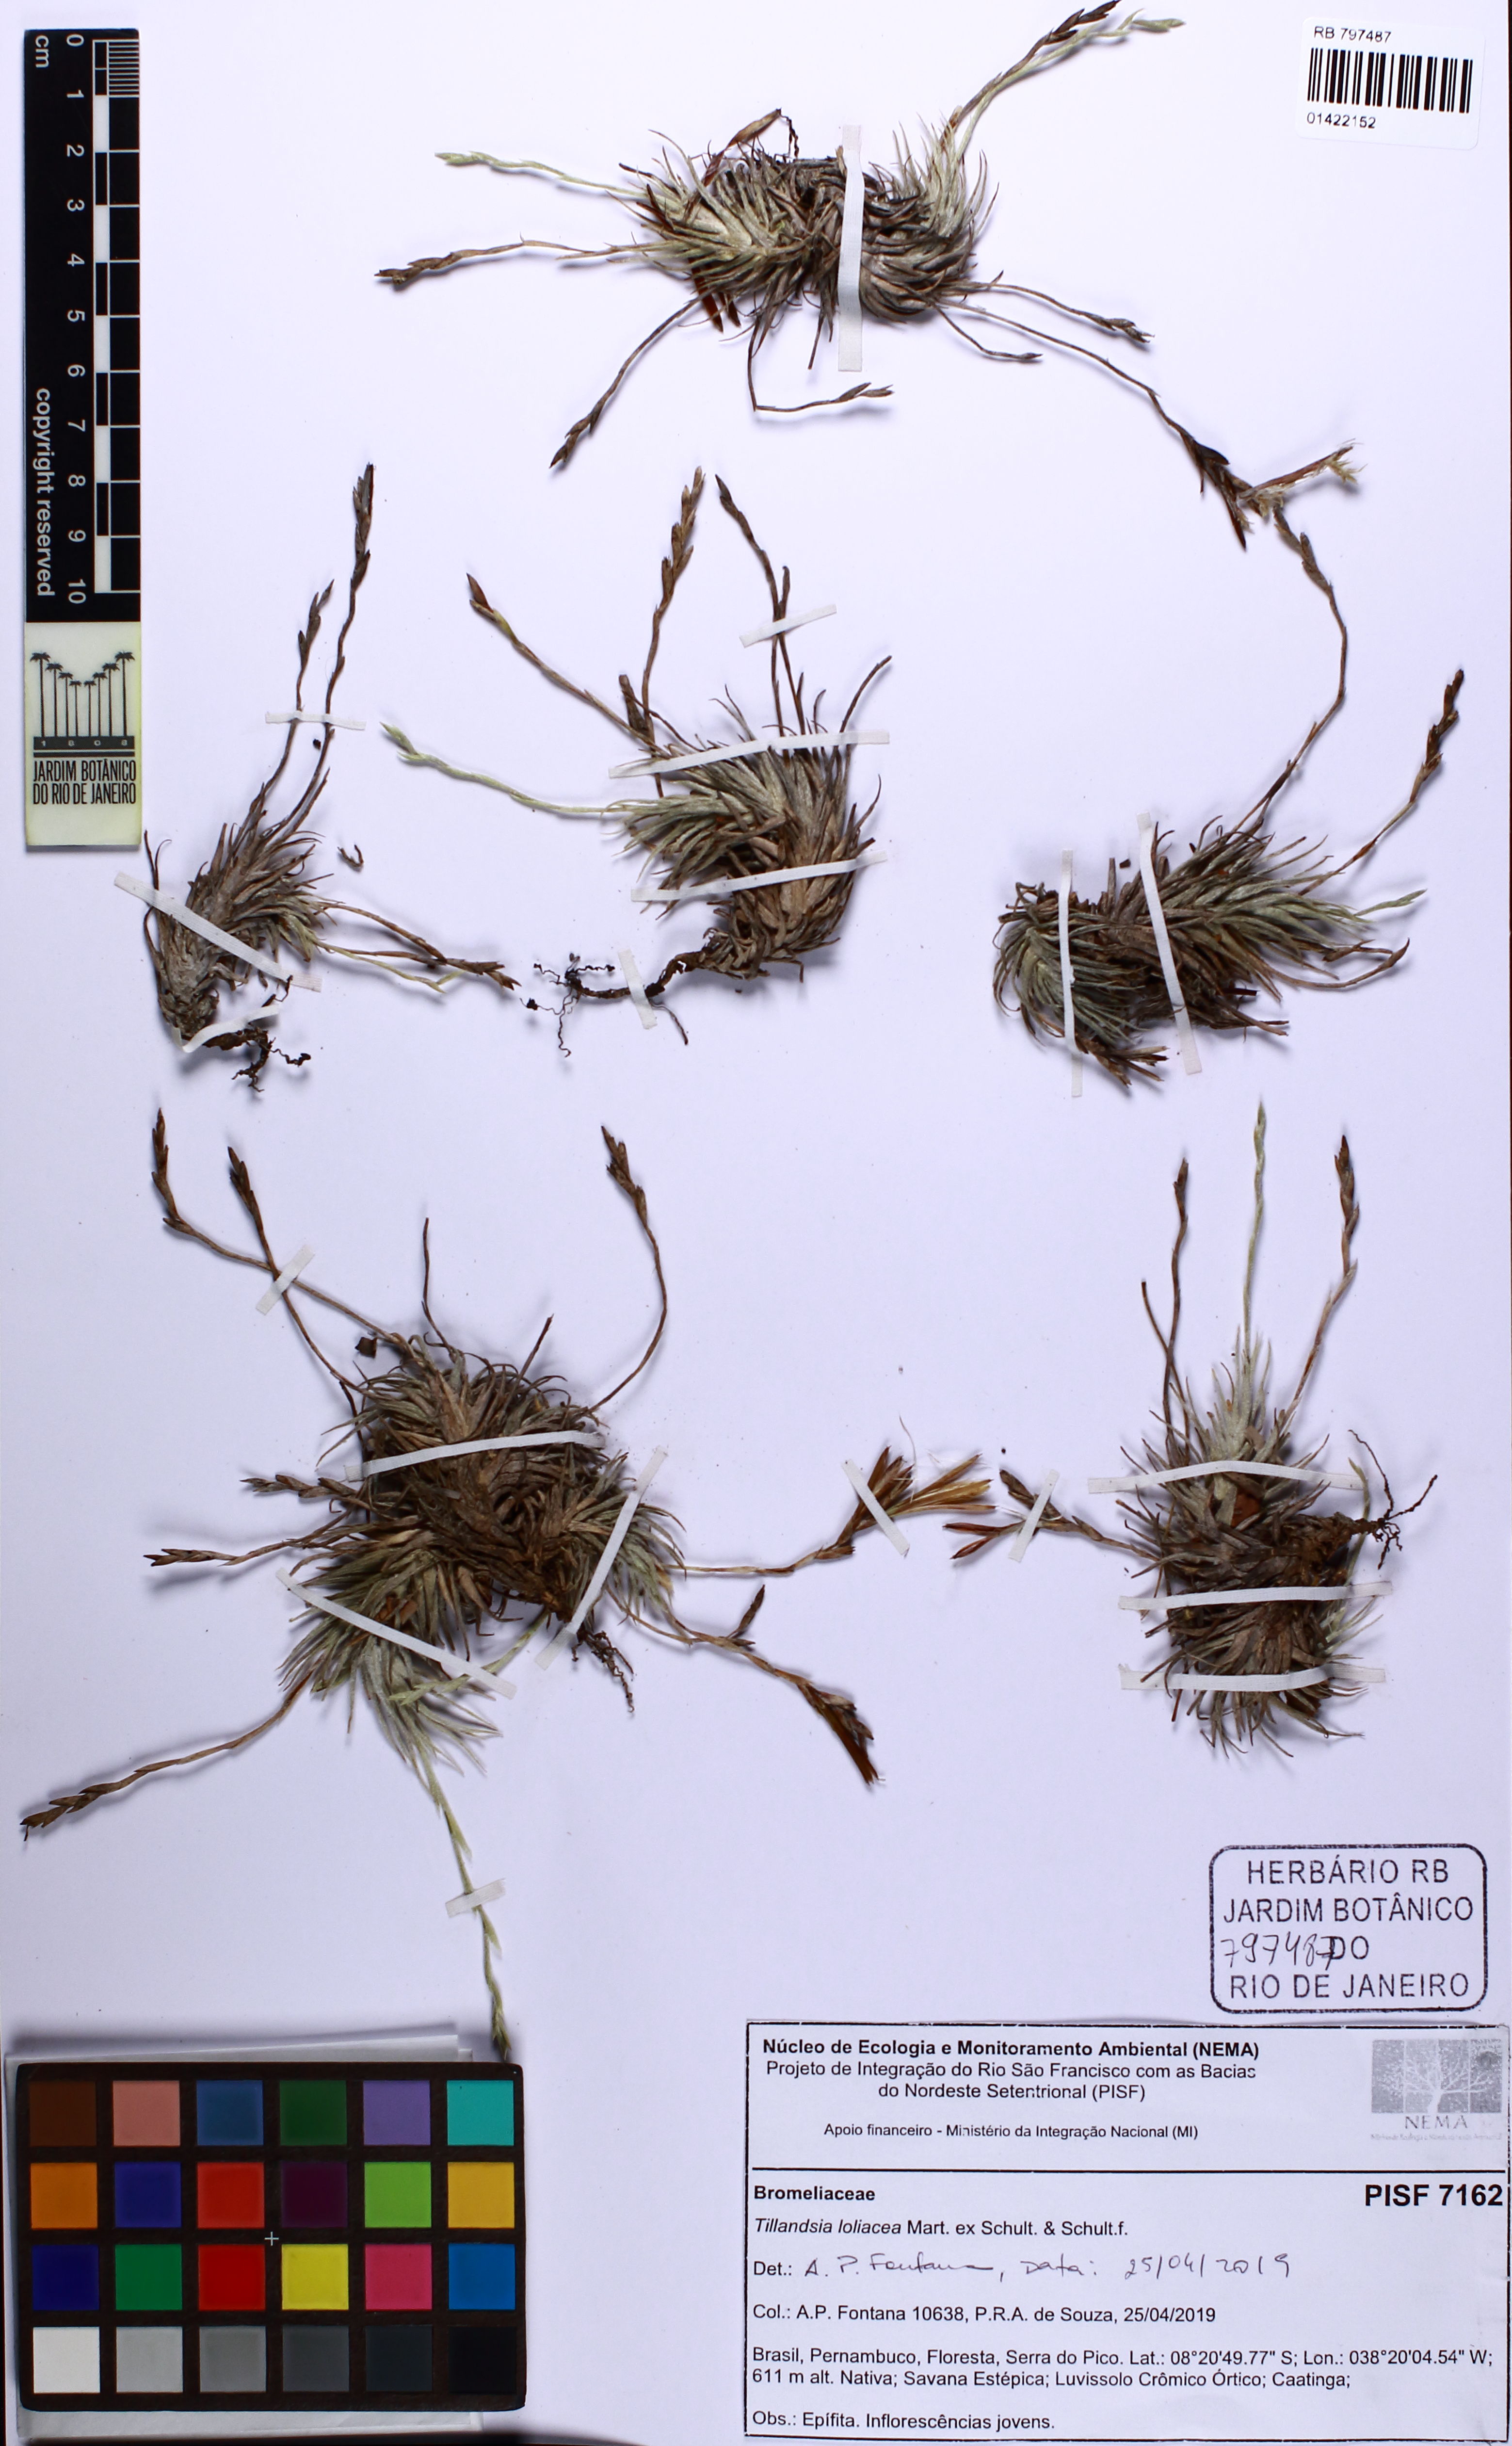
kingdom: Plantae
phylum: Tracheophyta
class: Liliopsida
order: Poales
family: Bromeliaceae
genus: Tillandsia
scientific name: Tillandsia loliacea
